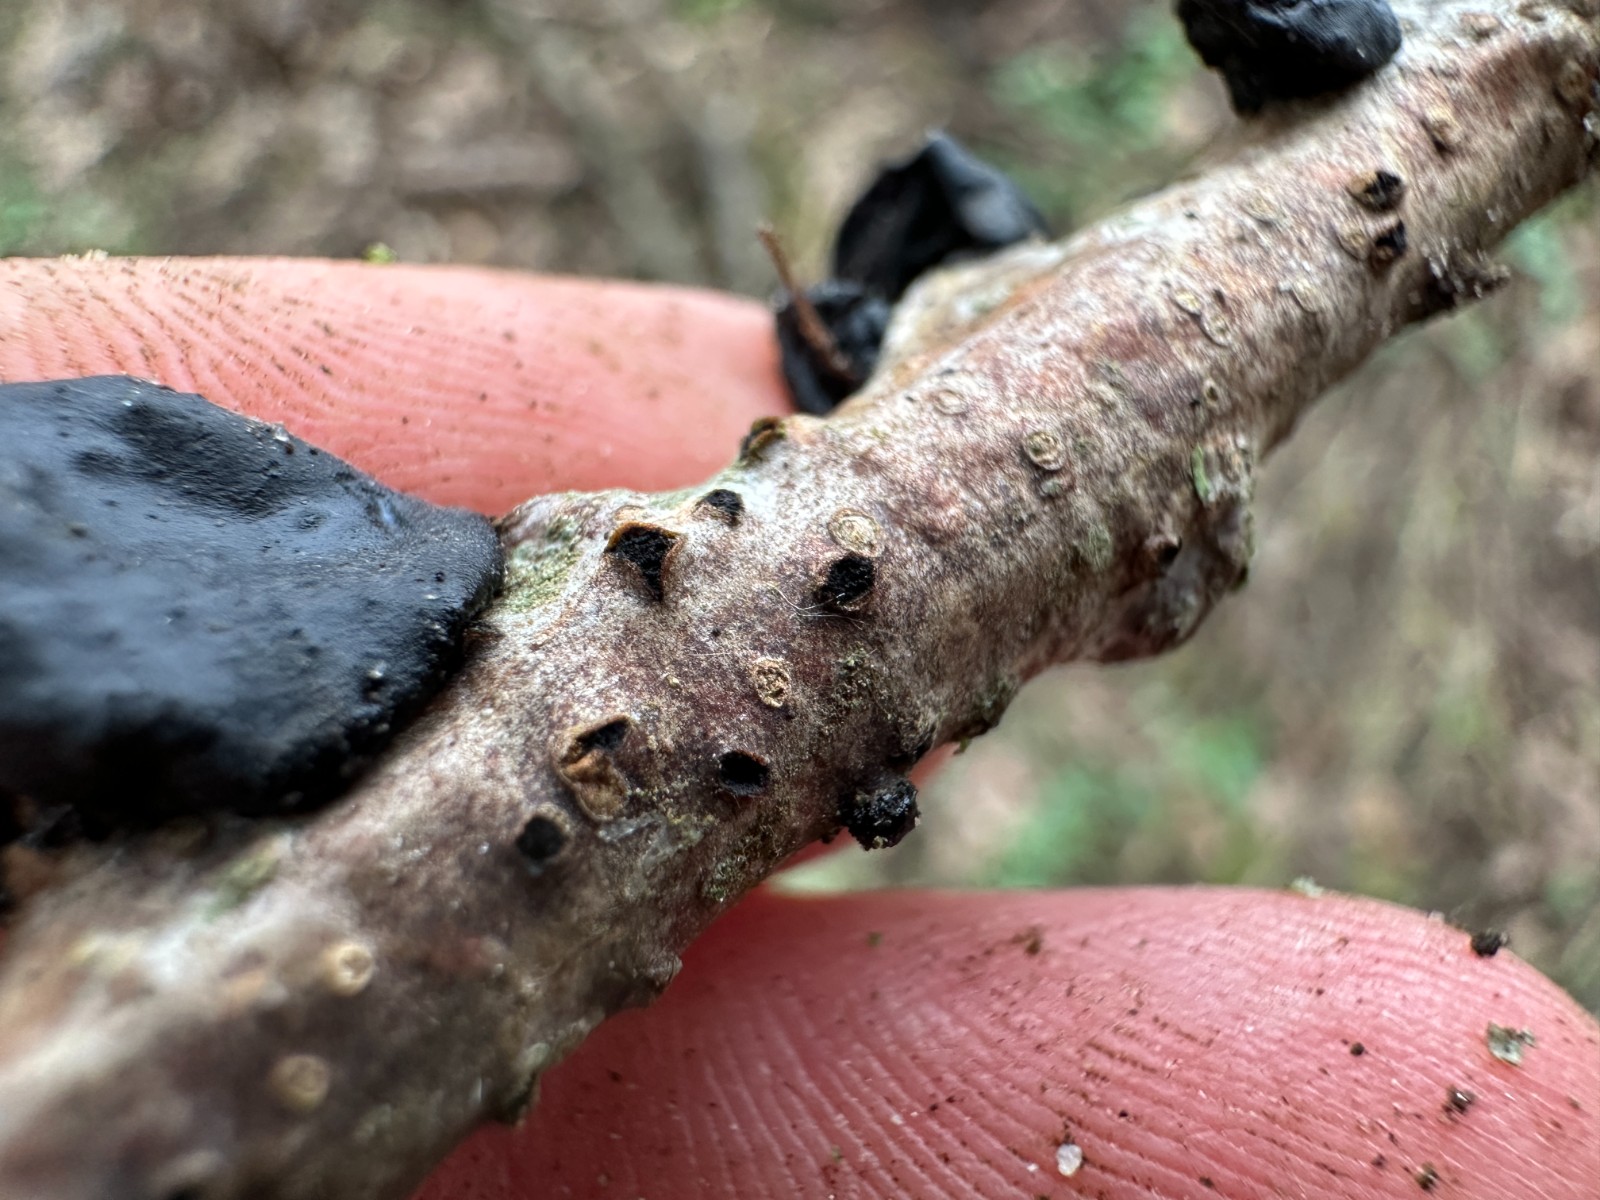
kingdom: Fungi
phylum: Ascomycota
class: Sordariomycetes
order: Xylariales
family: Diatrypaceae
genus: Diatrypella
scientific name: Diatrypella quercina
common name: ege-kulskorpe
